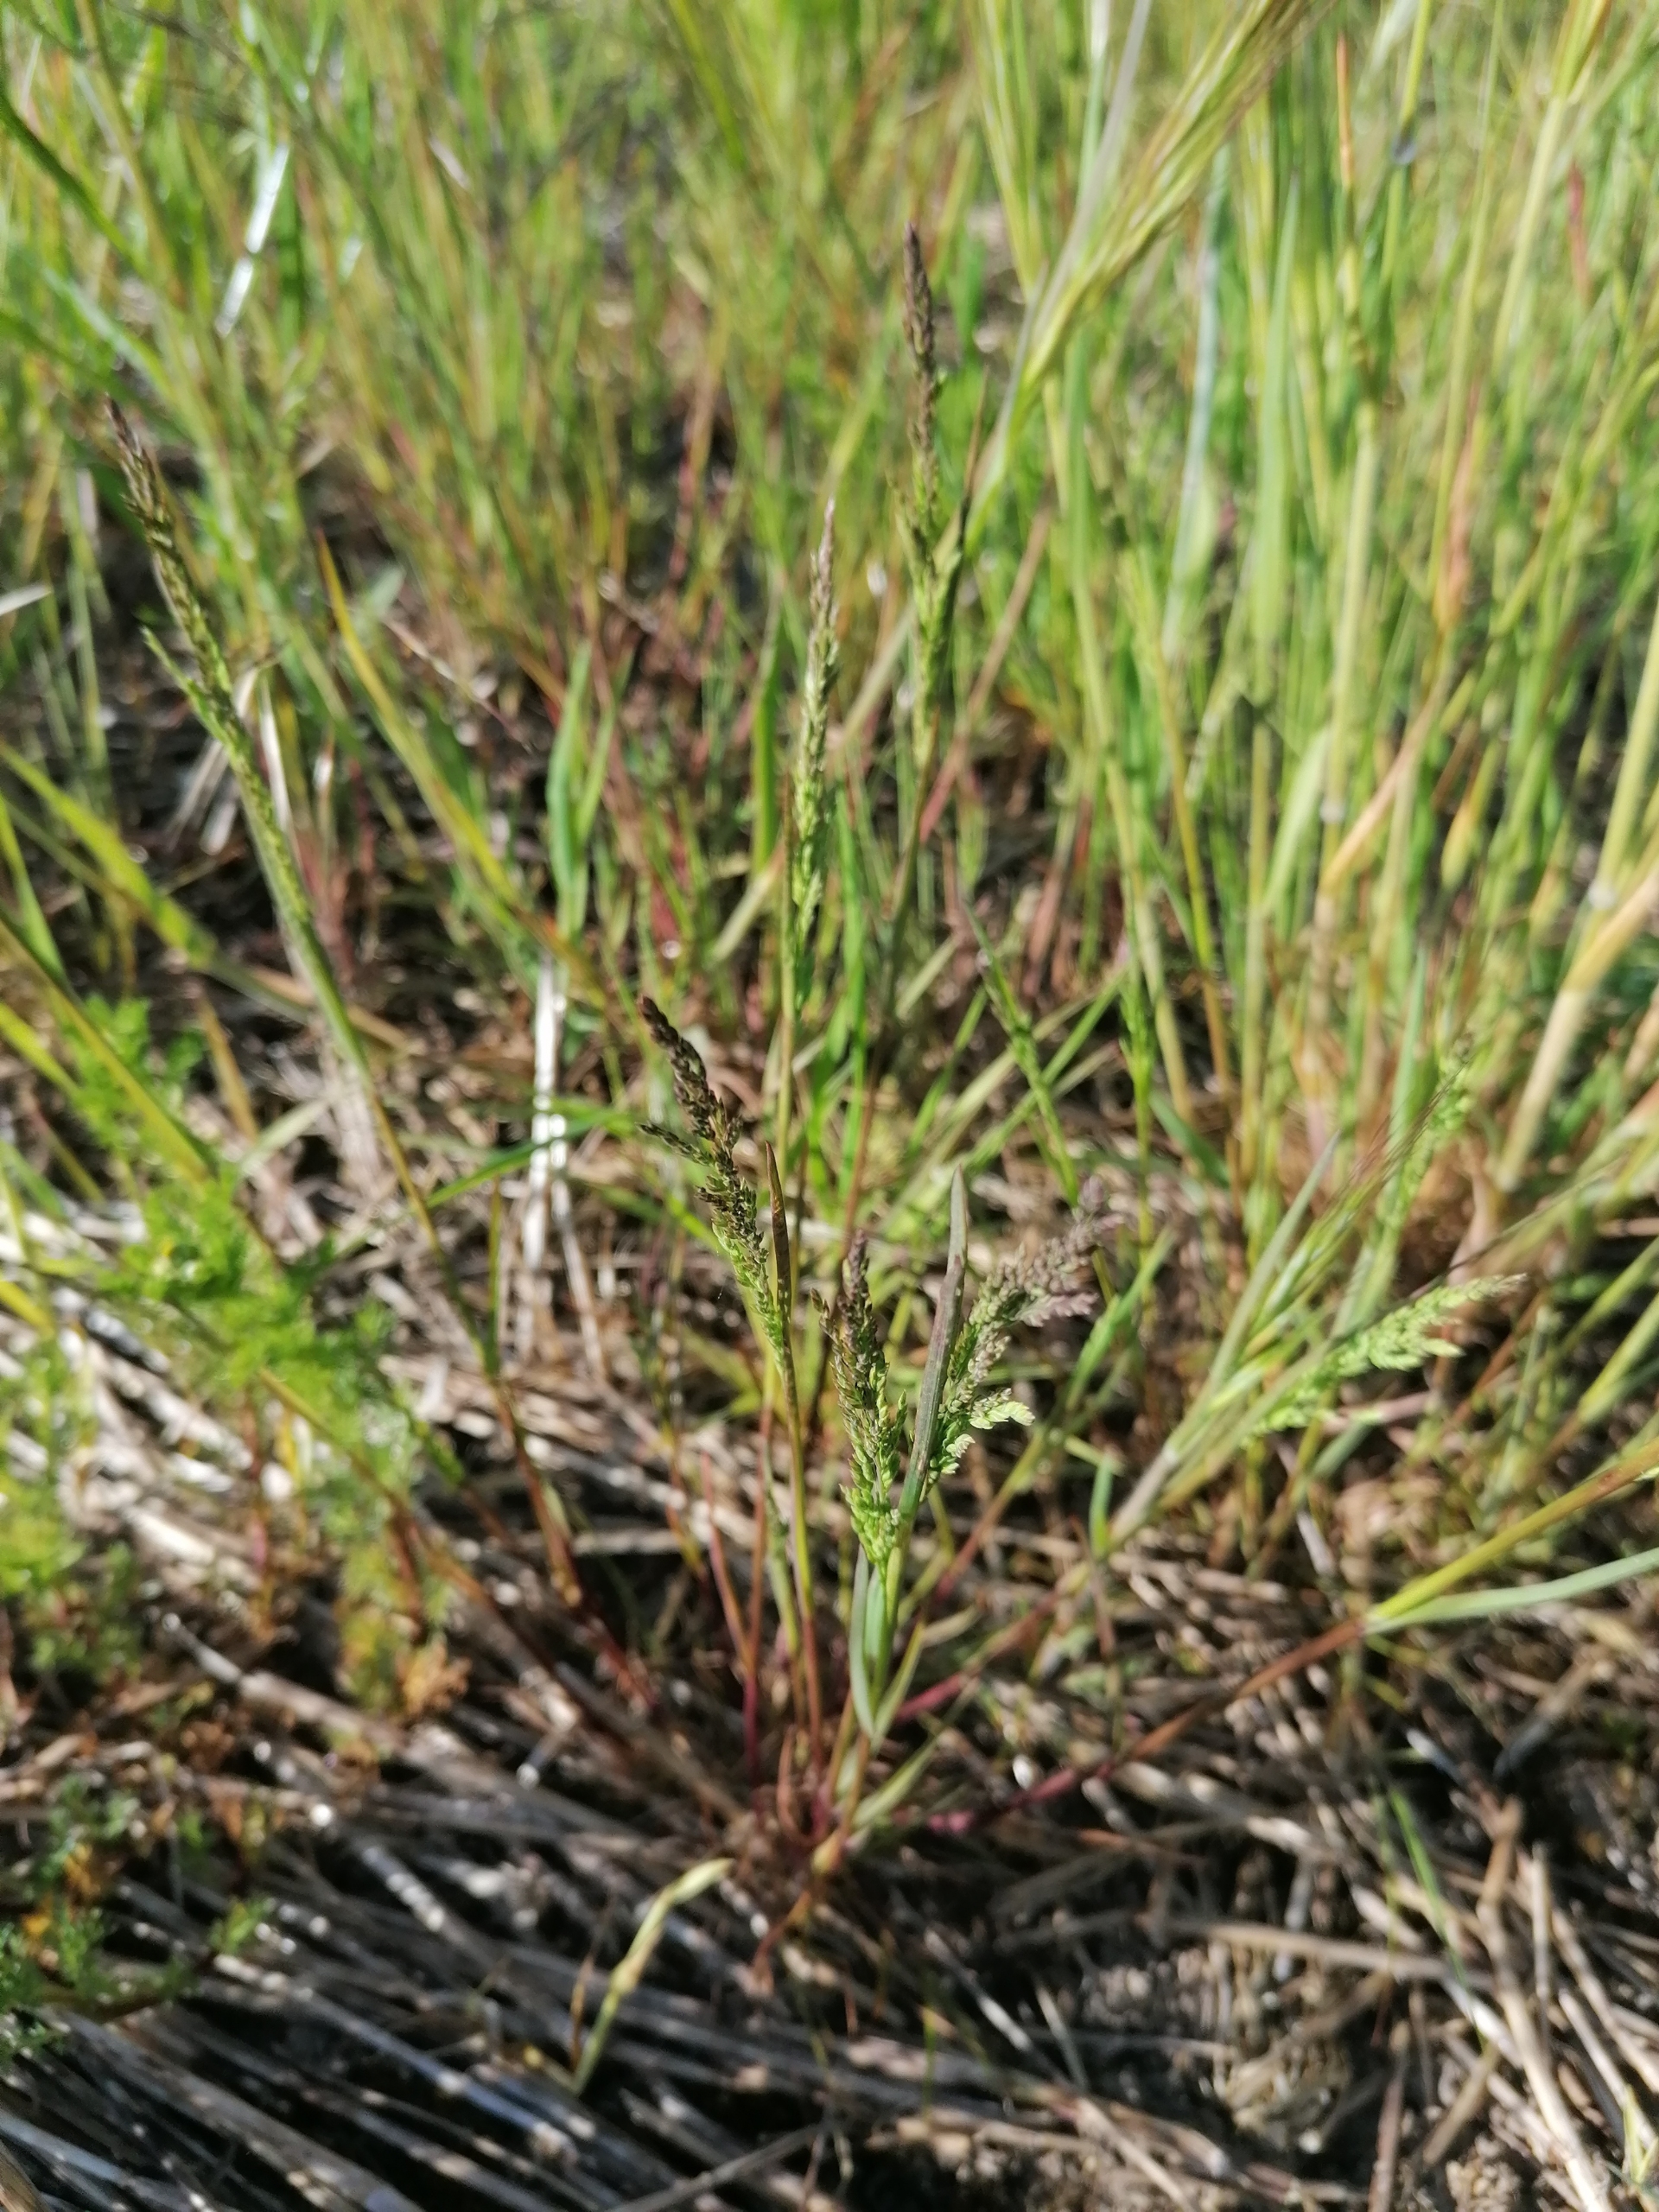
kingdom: Plantae
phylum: Tracheophyta
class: Liliopsida
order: Poales
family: Poaceae
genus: Poa
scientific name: Poa trivialis
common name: Almindelig rapgræs
